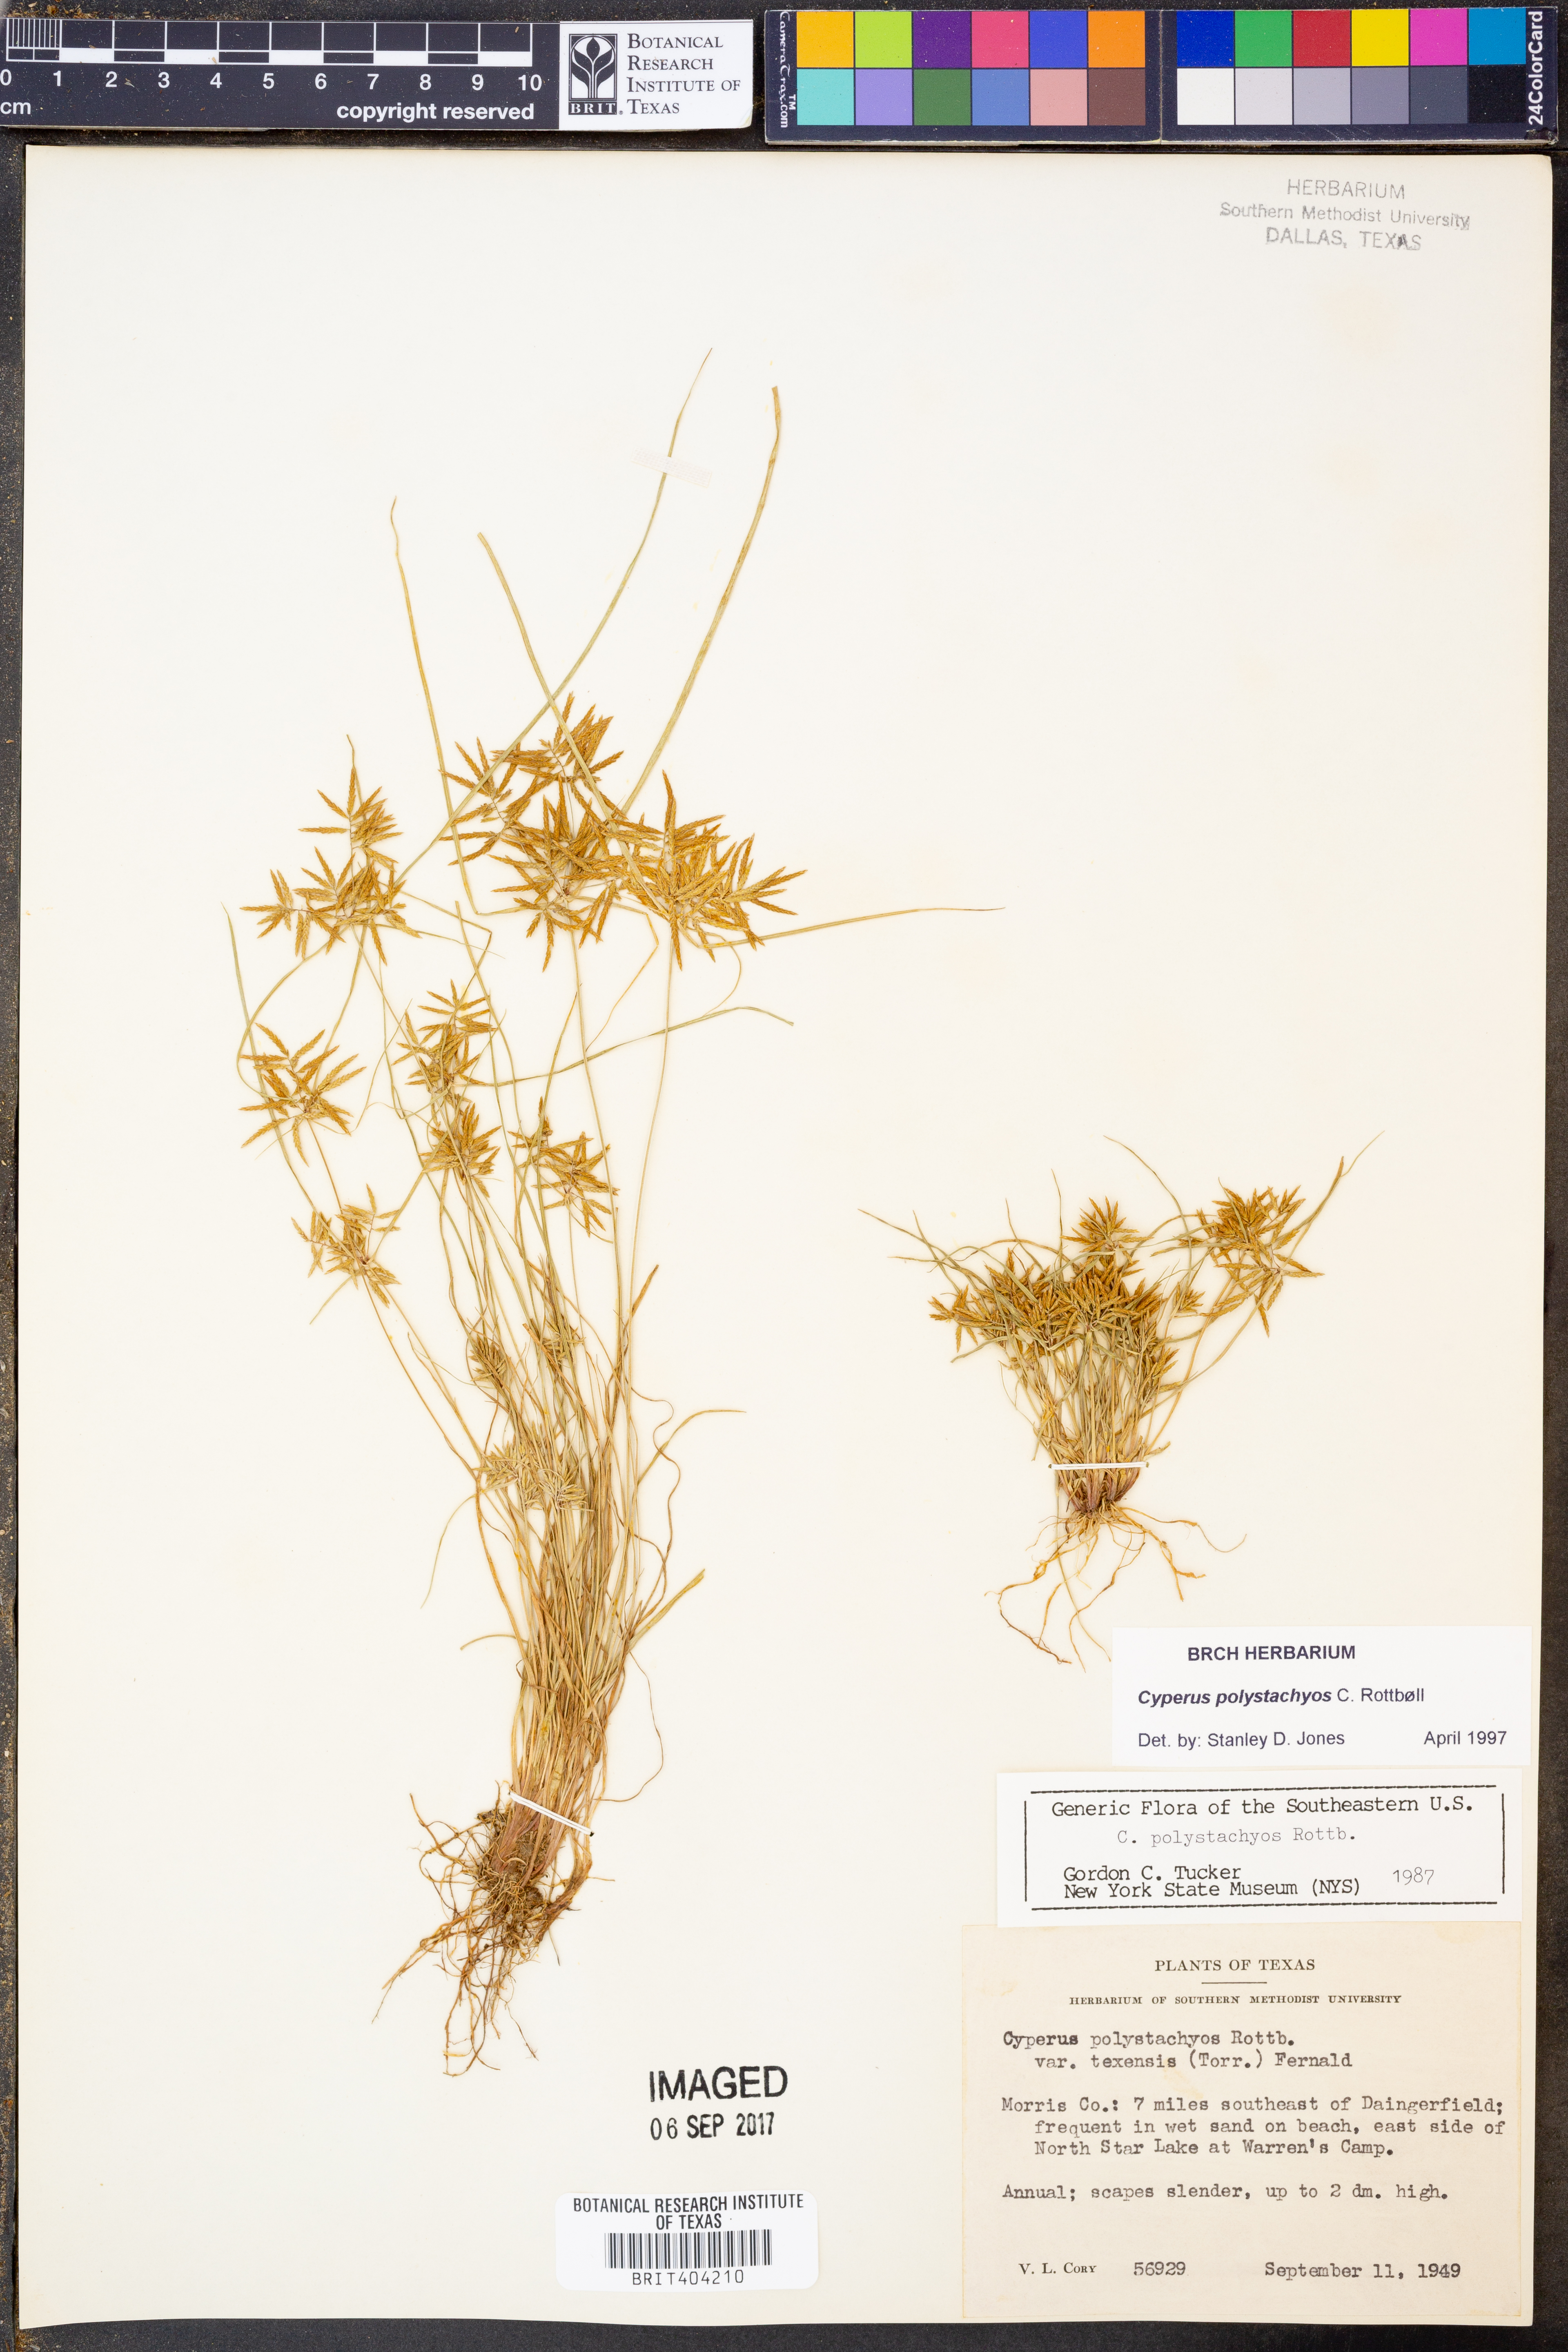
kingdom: Plantae
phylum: Tracheophyta
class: Liliopsida
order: Poales
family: Cyperaceae
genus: Cyperus
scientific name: Cyperus polystachyos
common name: Bunchy flat sedge
